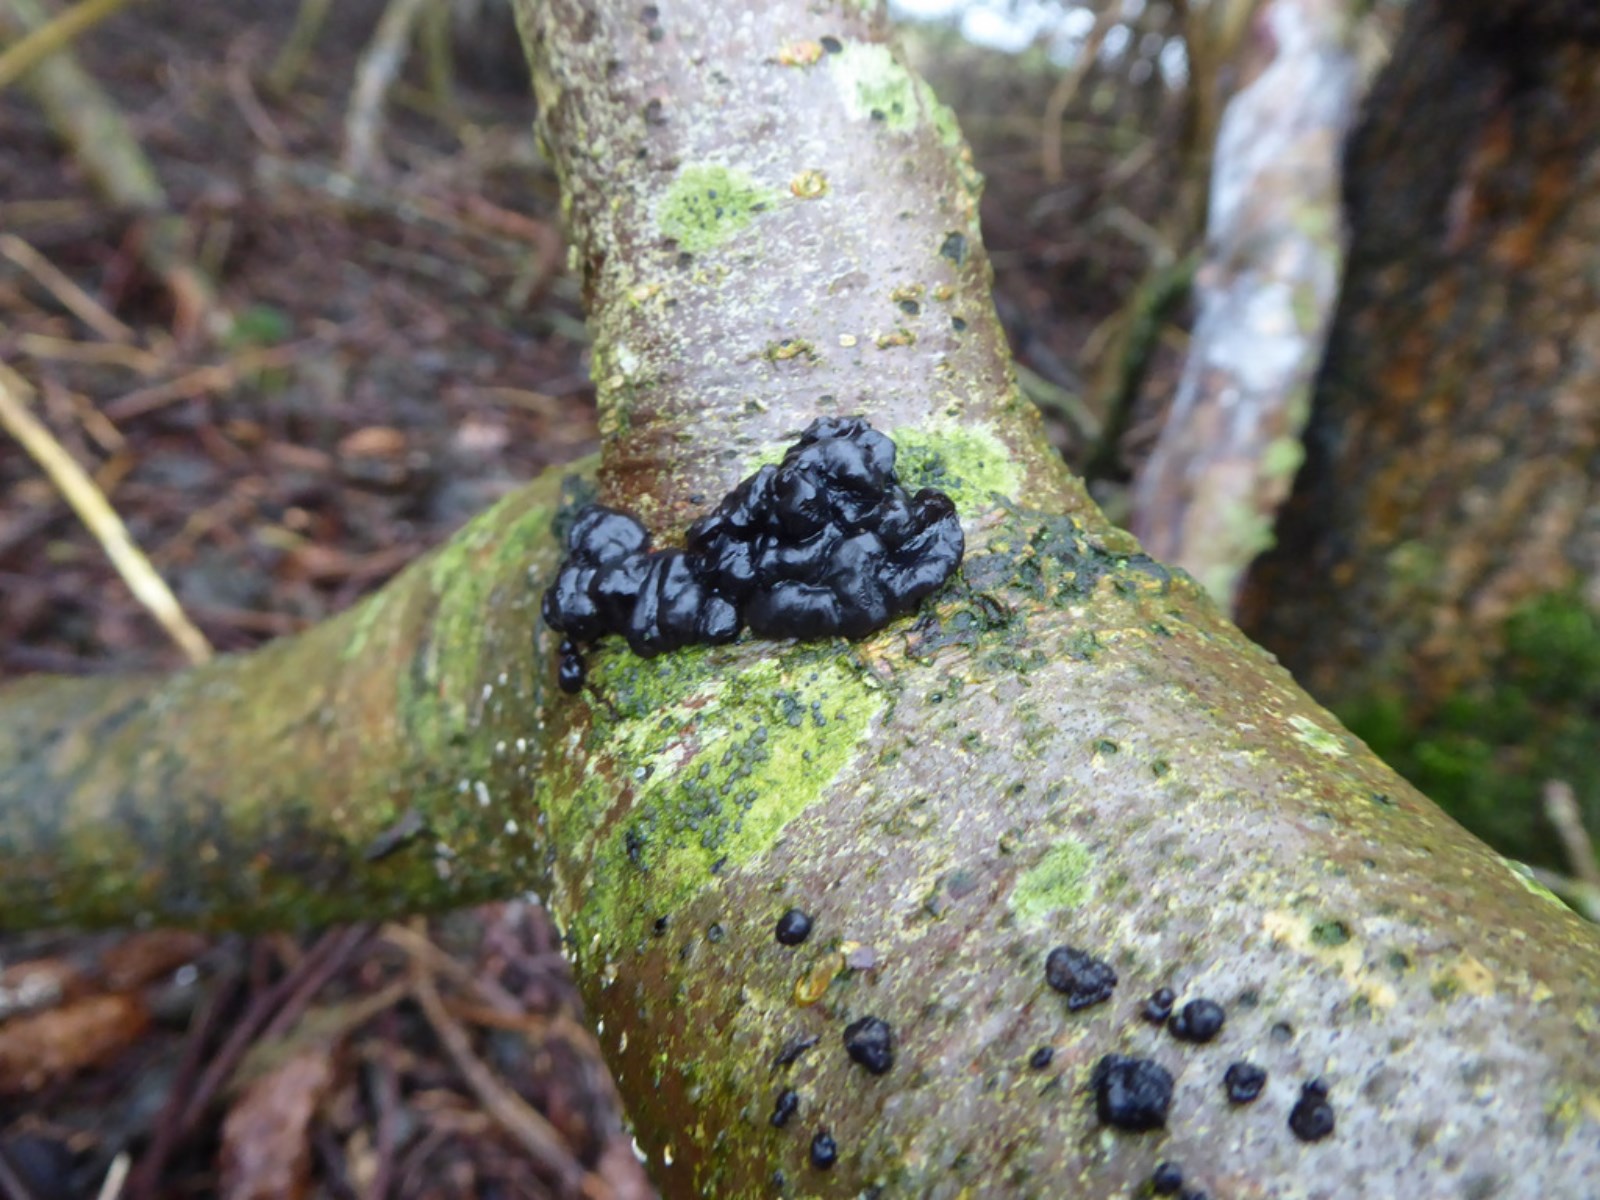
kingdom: Fungi
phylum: Basidiomycota
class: Agaricomycetes
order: Auriculariales
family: Auriculariaceae
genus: Exidia
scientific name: Exidia nigricans
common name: almindelig bævretop
